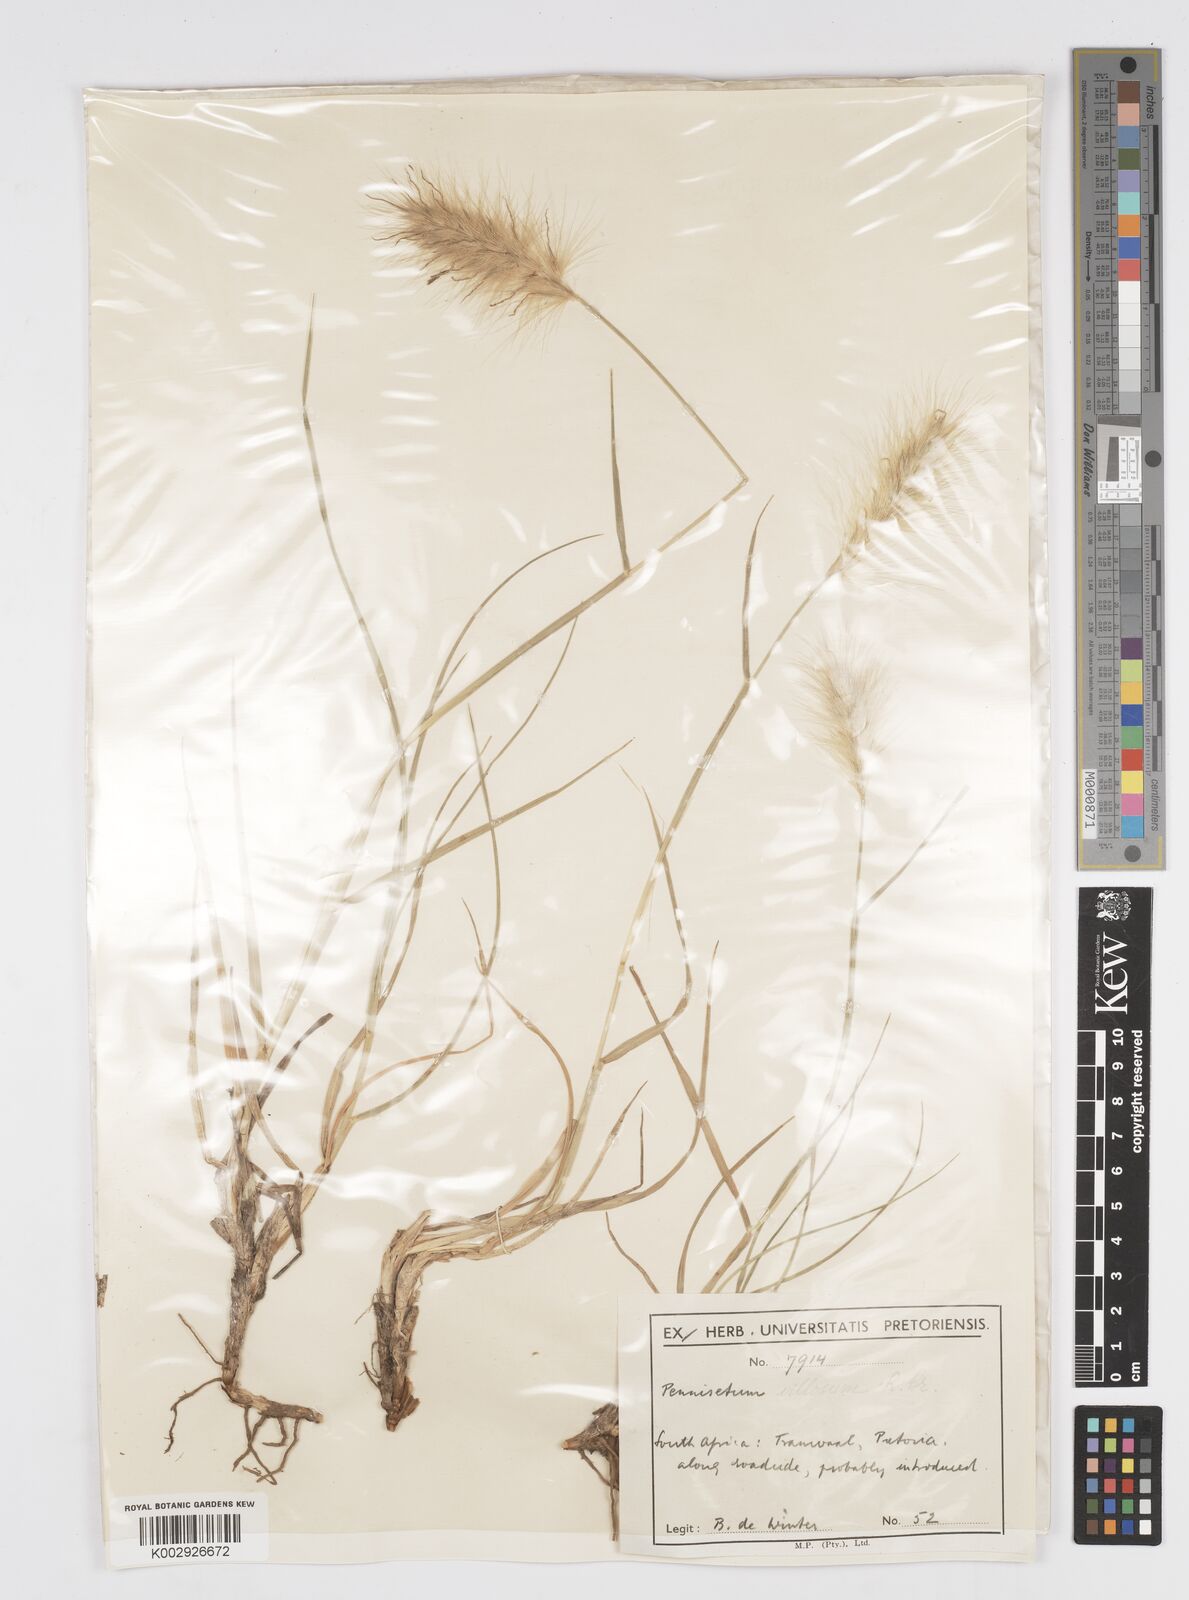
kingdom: Plantae
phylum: Tracheophyta
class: Liliopsida
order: Poales
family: Poaceae
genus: Cenchrus
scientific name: Cenchrus longisetus
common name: Feathertop
